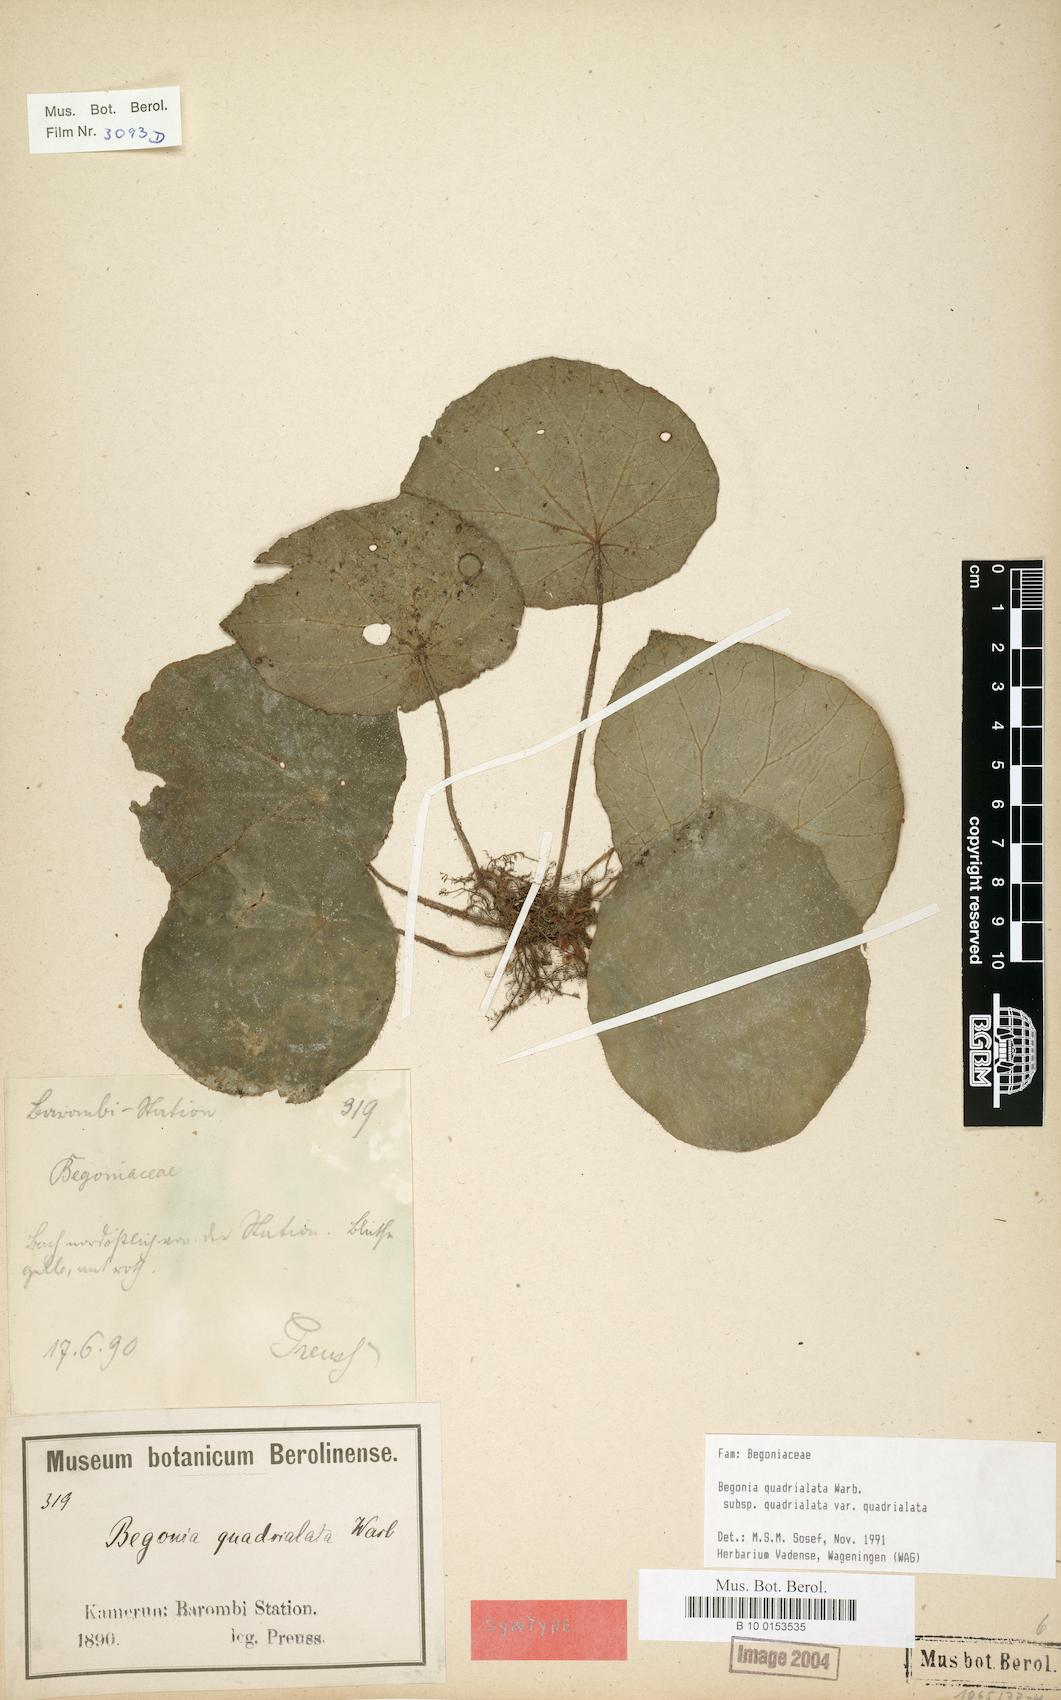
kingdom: Plantae
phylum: Tracheophyta
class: Magnoliopsida
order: Cucurbitales
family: Begoniaceae
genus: Begonia
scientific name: Begonia quadrialata
